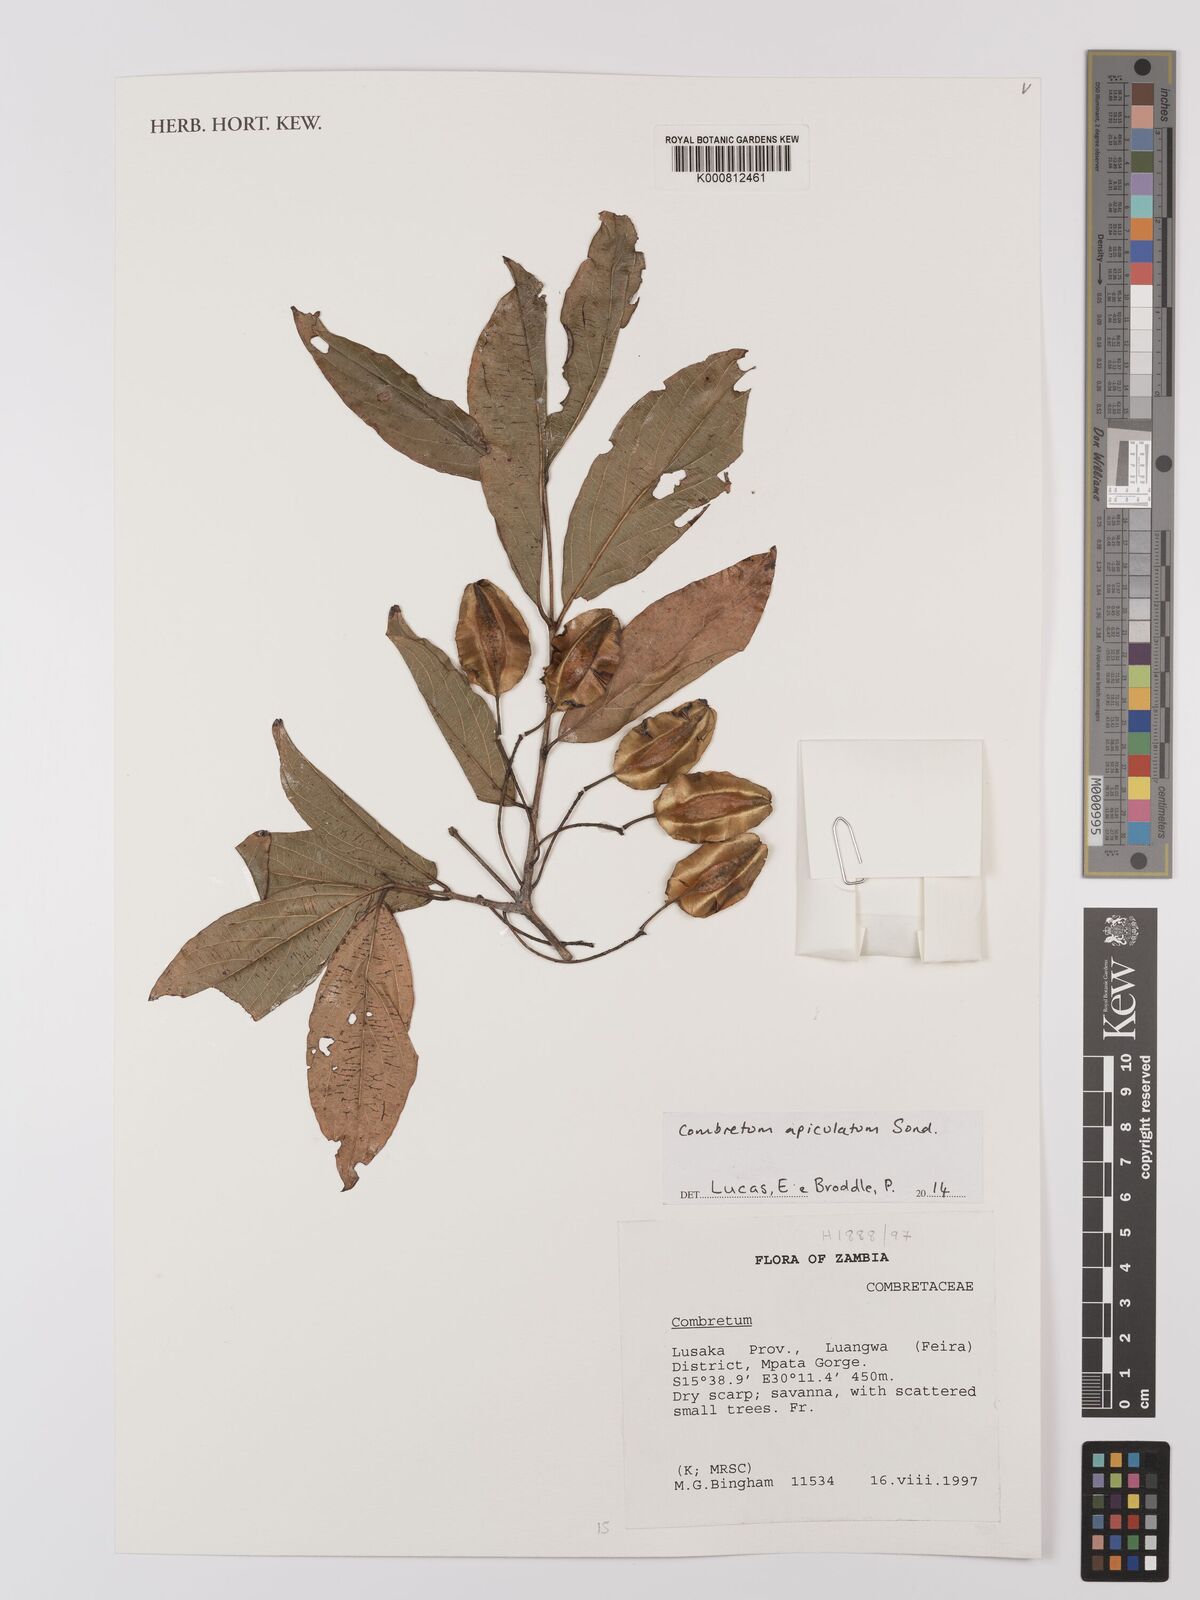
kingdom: Plantae
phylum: Tracheophyta
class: Magnoliopsida
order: Myrtales
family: Combretaceae
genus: Combretum
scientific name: Combretum apiculatum
